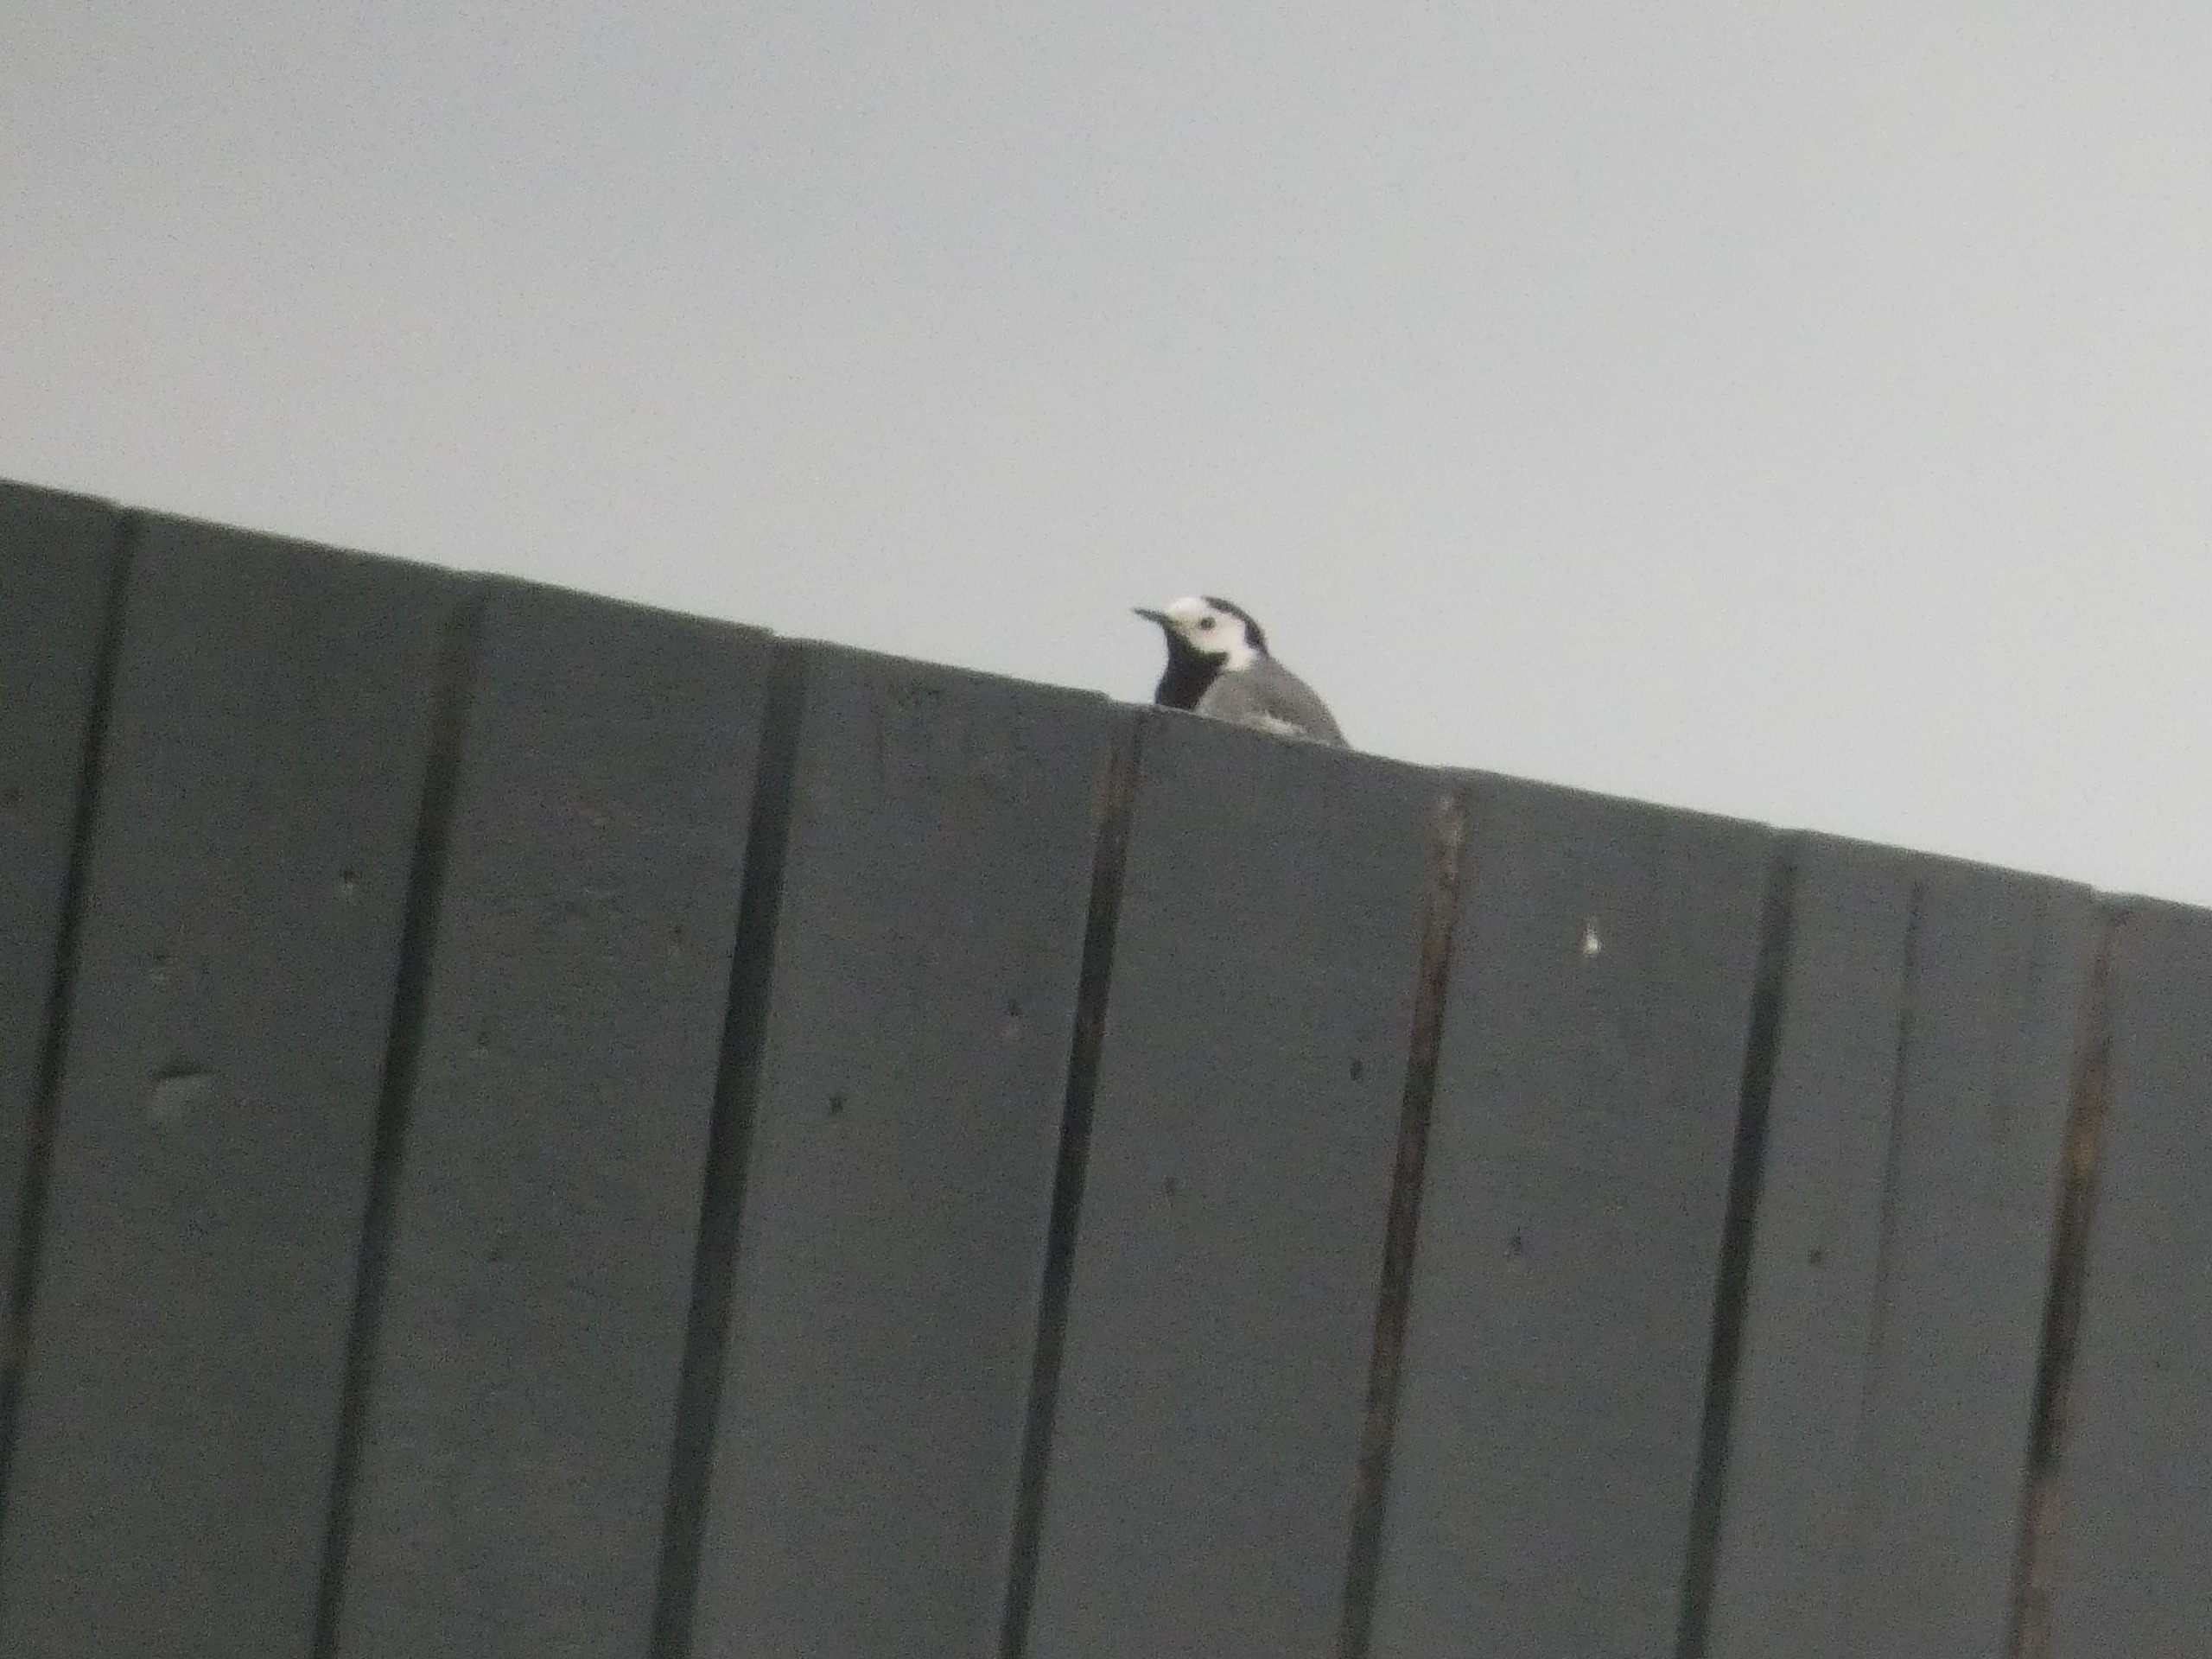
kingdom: Animalia
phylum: Chordata
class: Aves
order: Passeriformes
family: Motacillidae
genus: Motacilla
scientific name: Motacilla alba
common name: Hvid vipstjert
